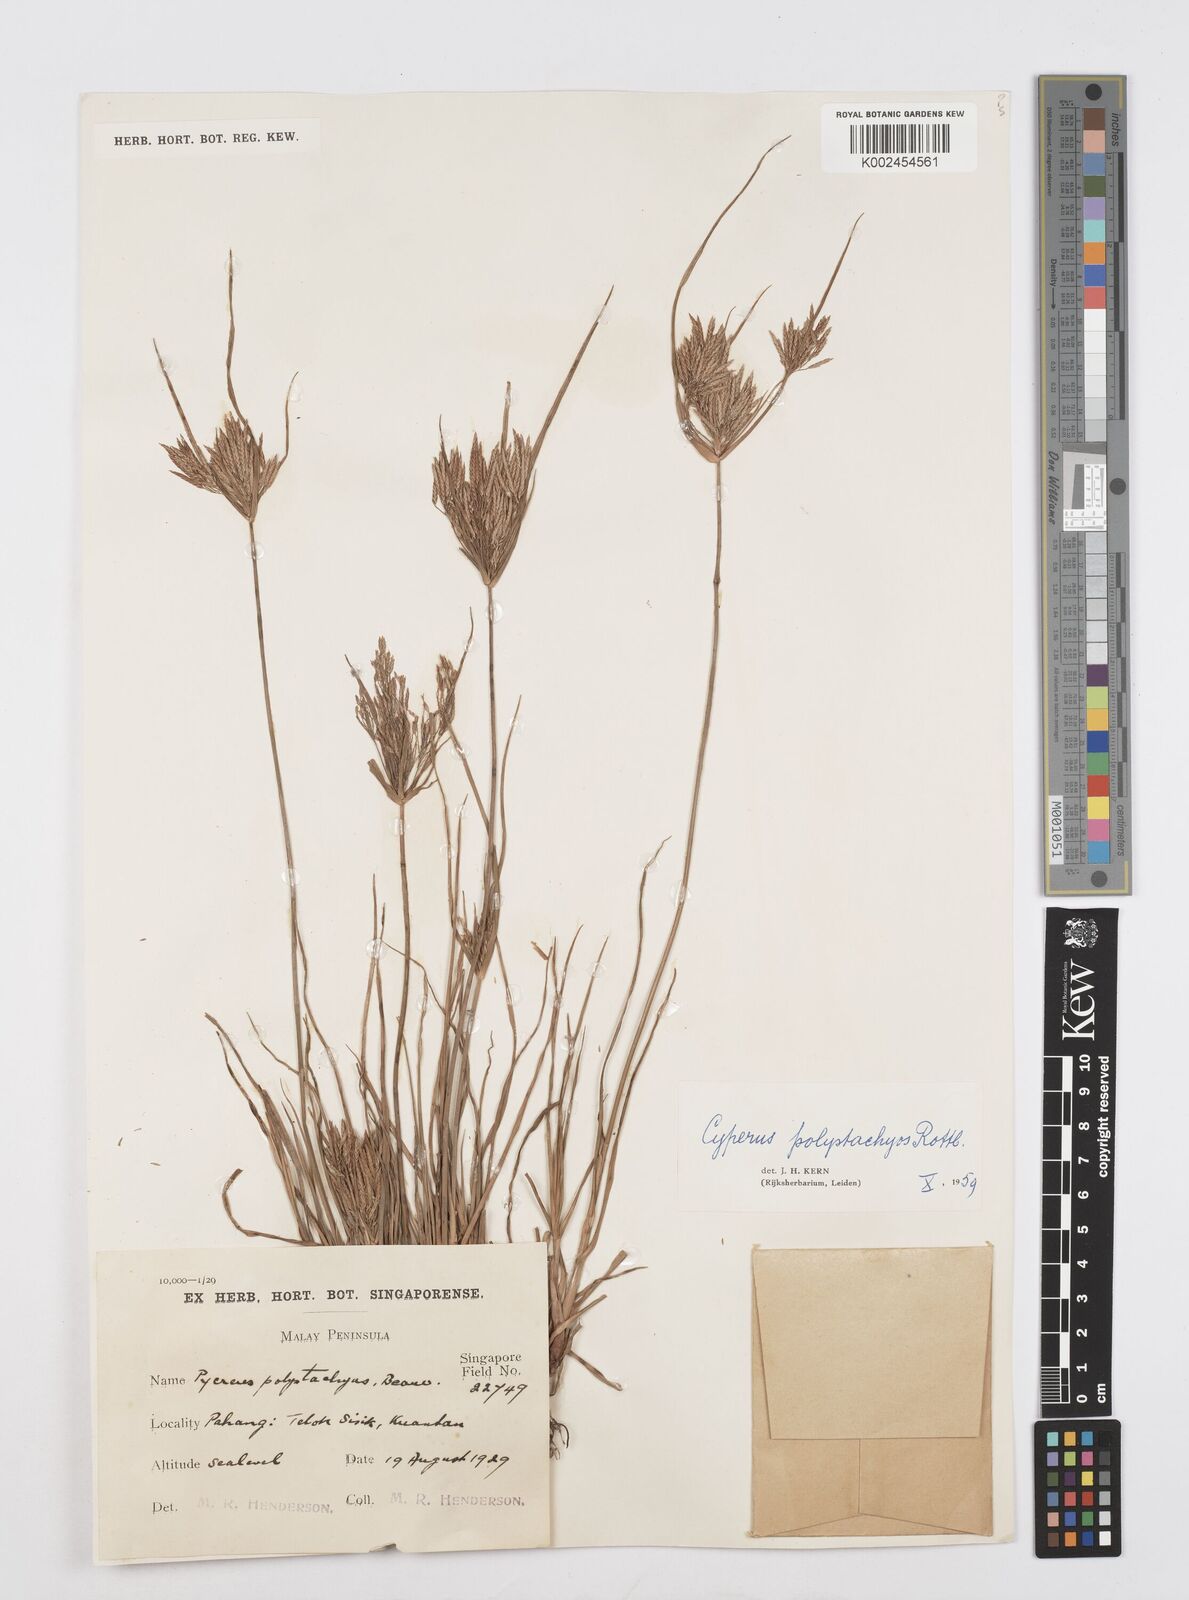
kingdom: Plantae
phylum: Tracheophyta
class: Liliopsida
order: Poales
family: Cyperaceae
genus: Cyperus
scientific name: Cyperus polystachyos
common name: Bunchy flat sedge
